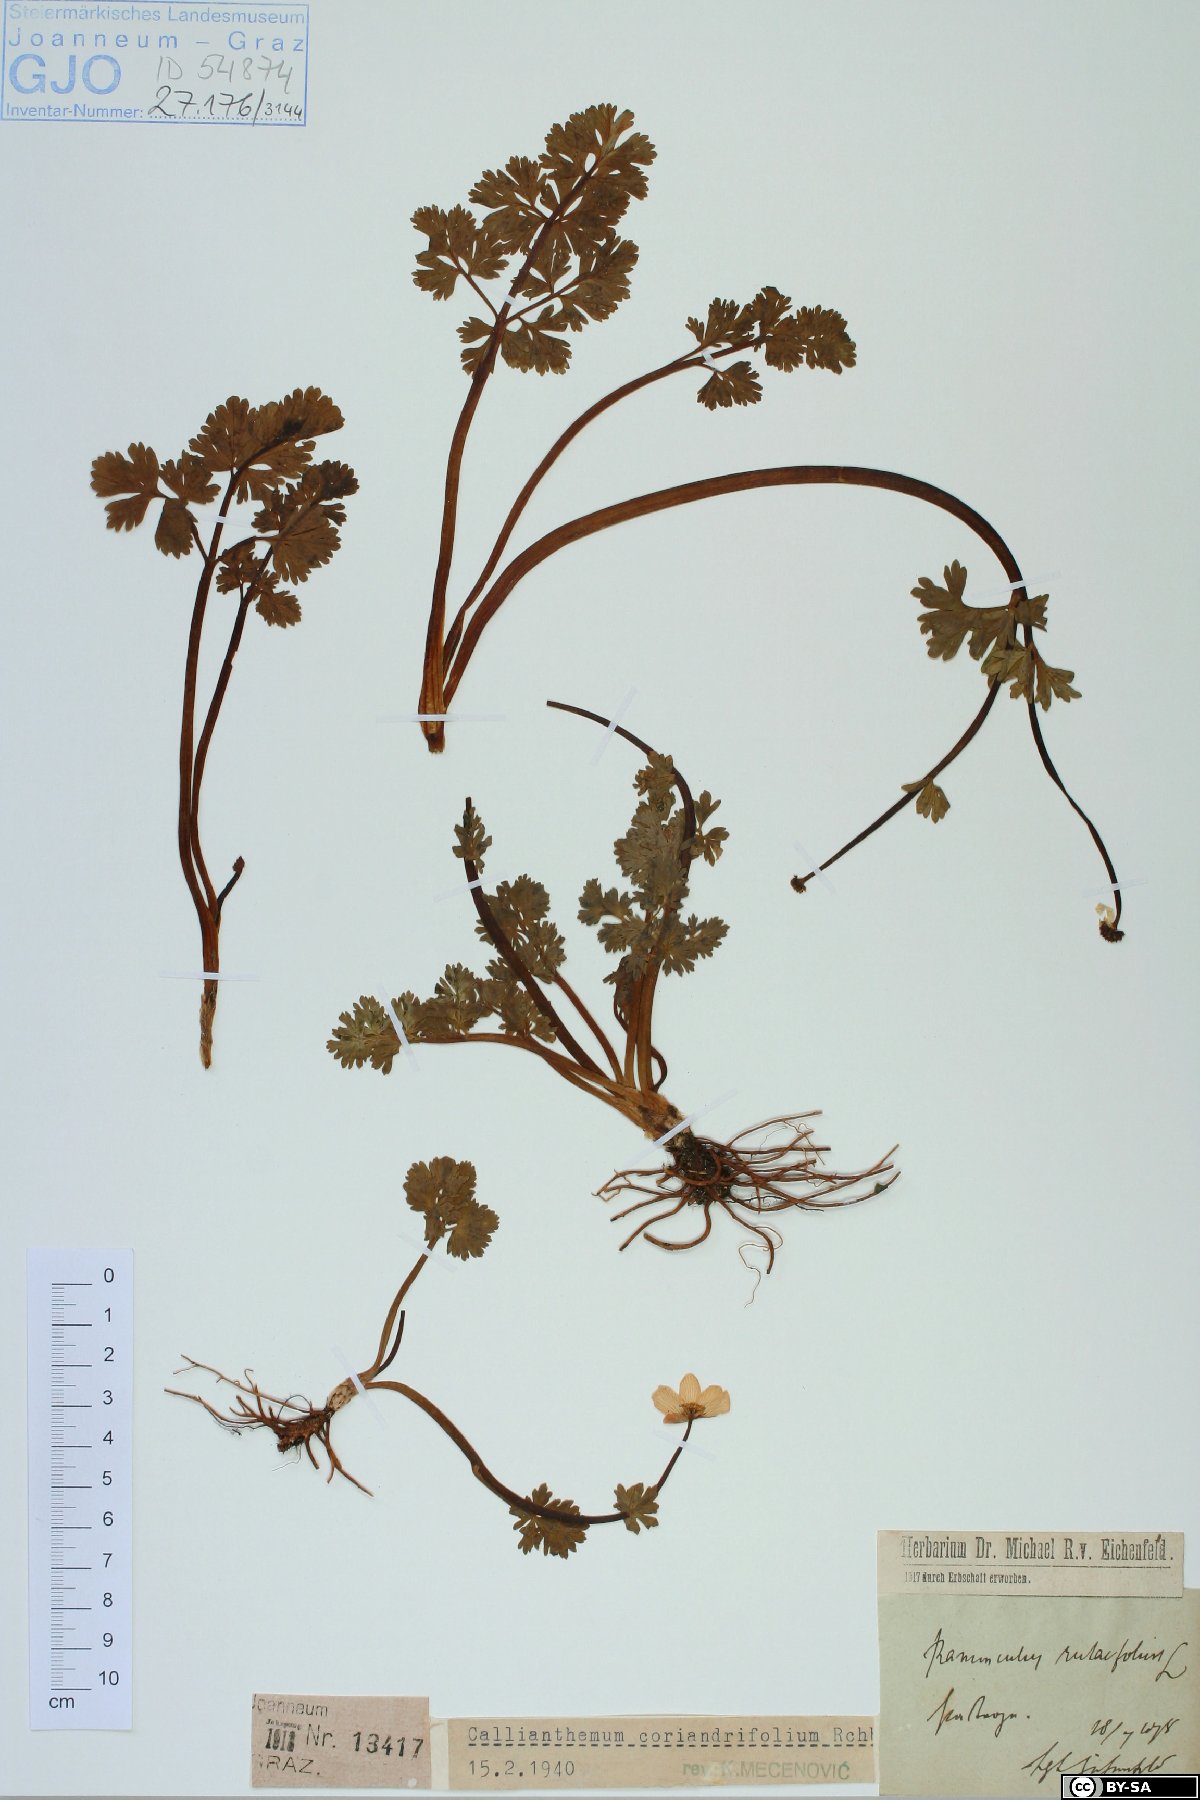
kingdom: Plantae
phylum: Tracheophyta
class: Magnoliopsida
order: Ranunculales
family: Ranunculaceae
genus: Callianthemum
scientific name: Callianthemum coriandrifolium
